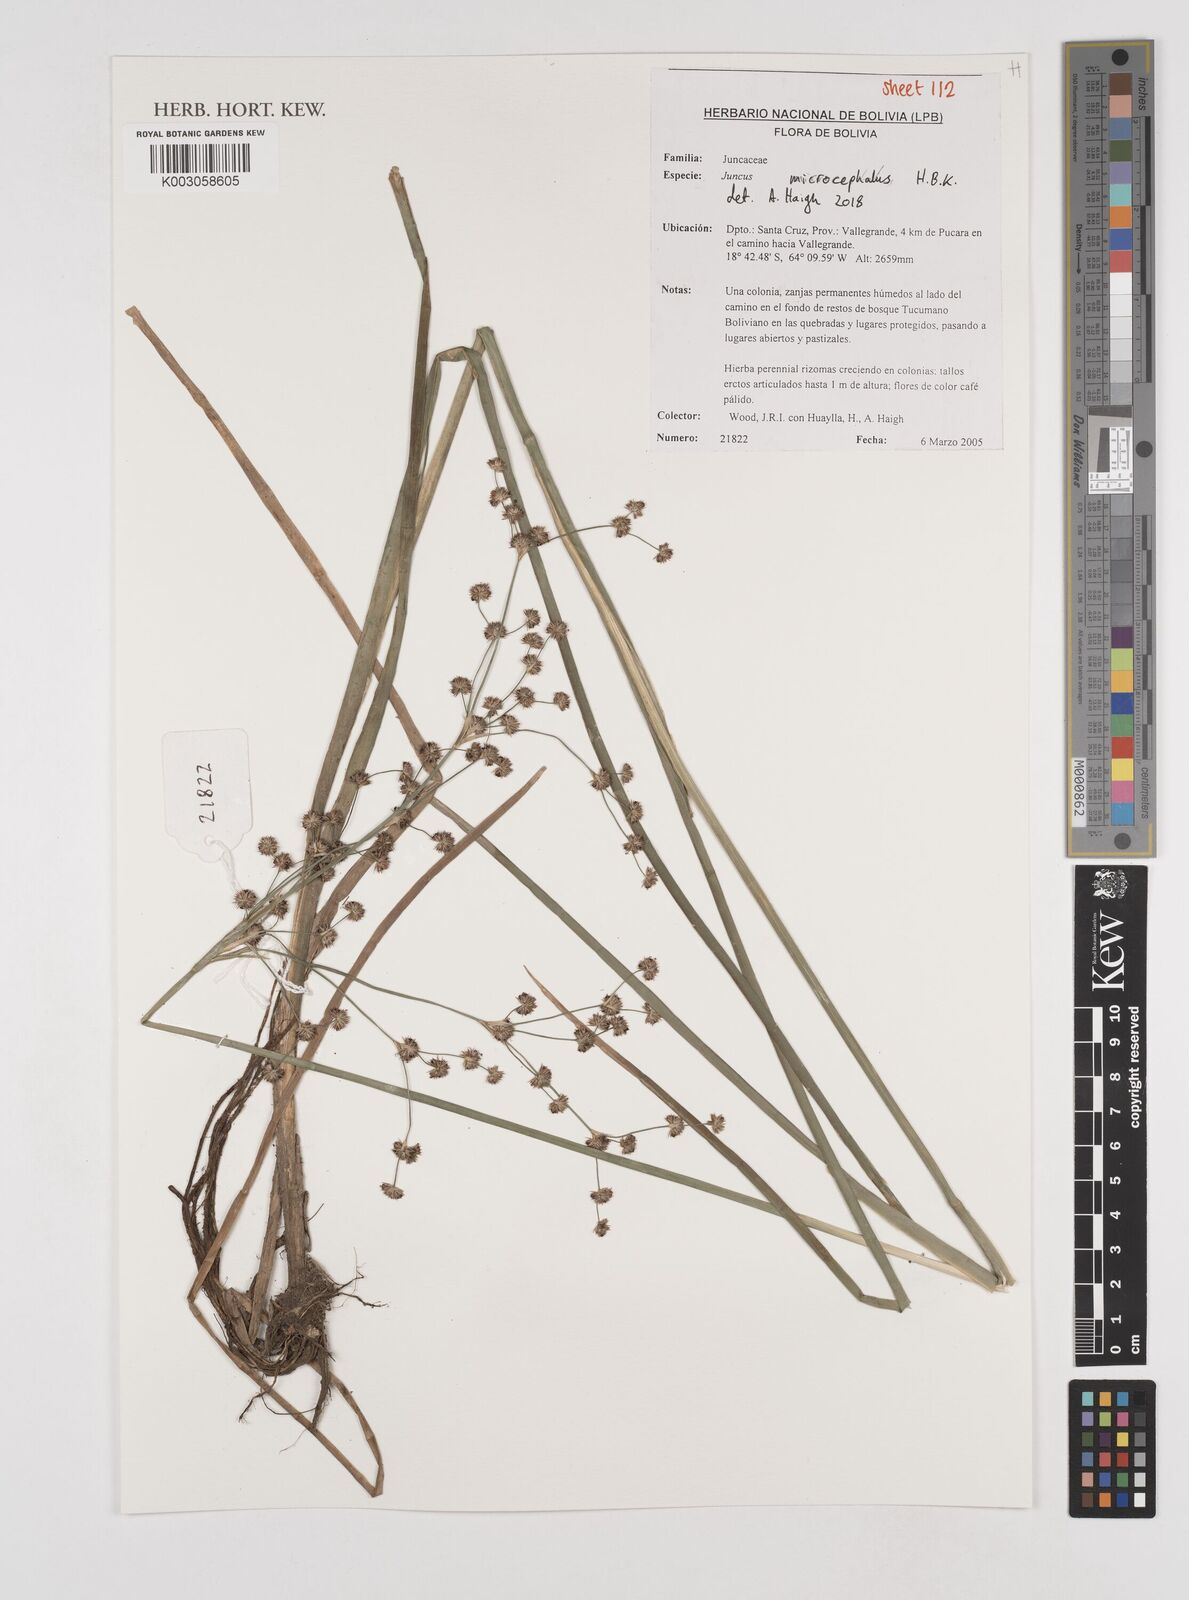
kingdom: Plantae
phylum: Tracheophyta
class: Liliopsida
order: Poales
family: Juncaceae
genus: Juncus
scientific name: Juncus
